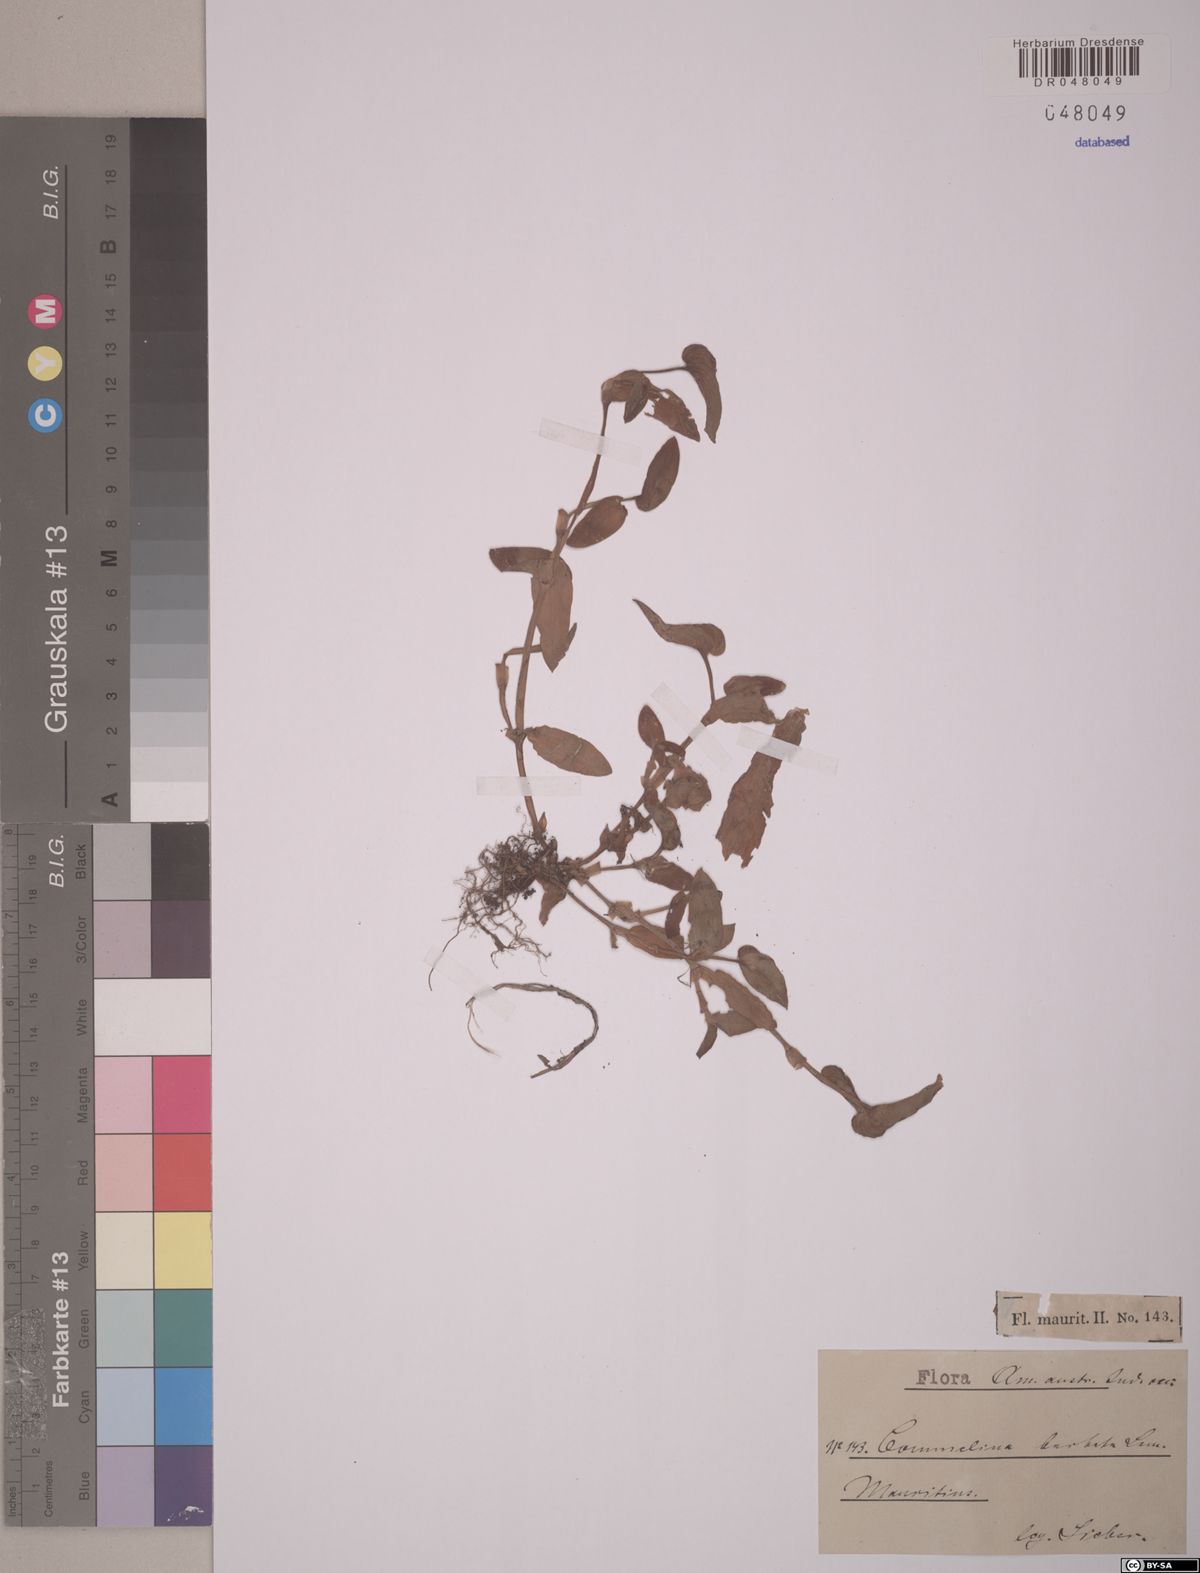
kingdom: Plantae
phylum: Tracheophyta
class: Liliopsida
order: Commelinales
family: Commelinaceae
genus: Commelina
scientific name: Commelina barbata
